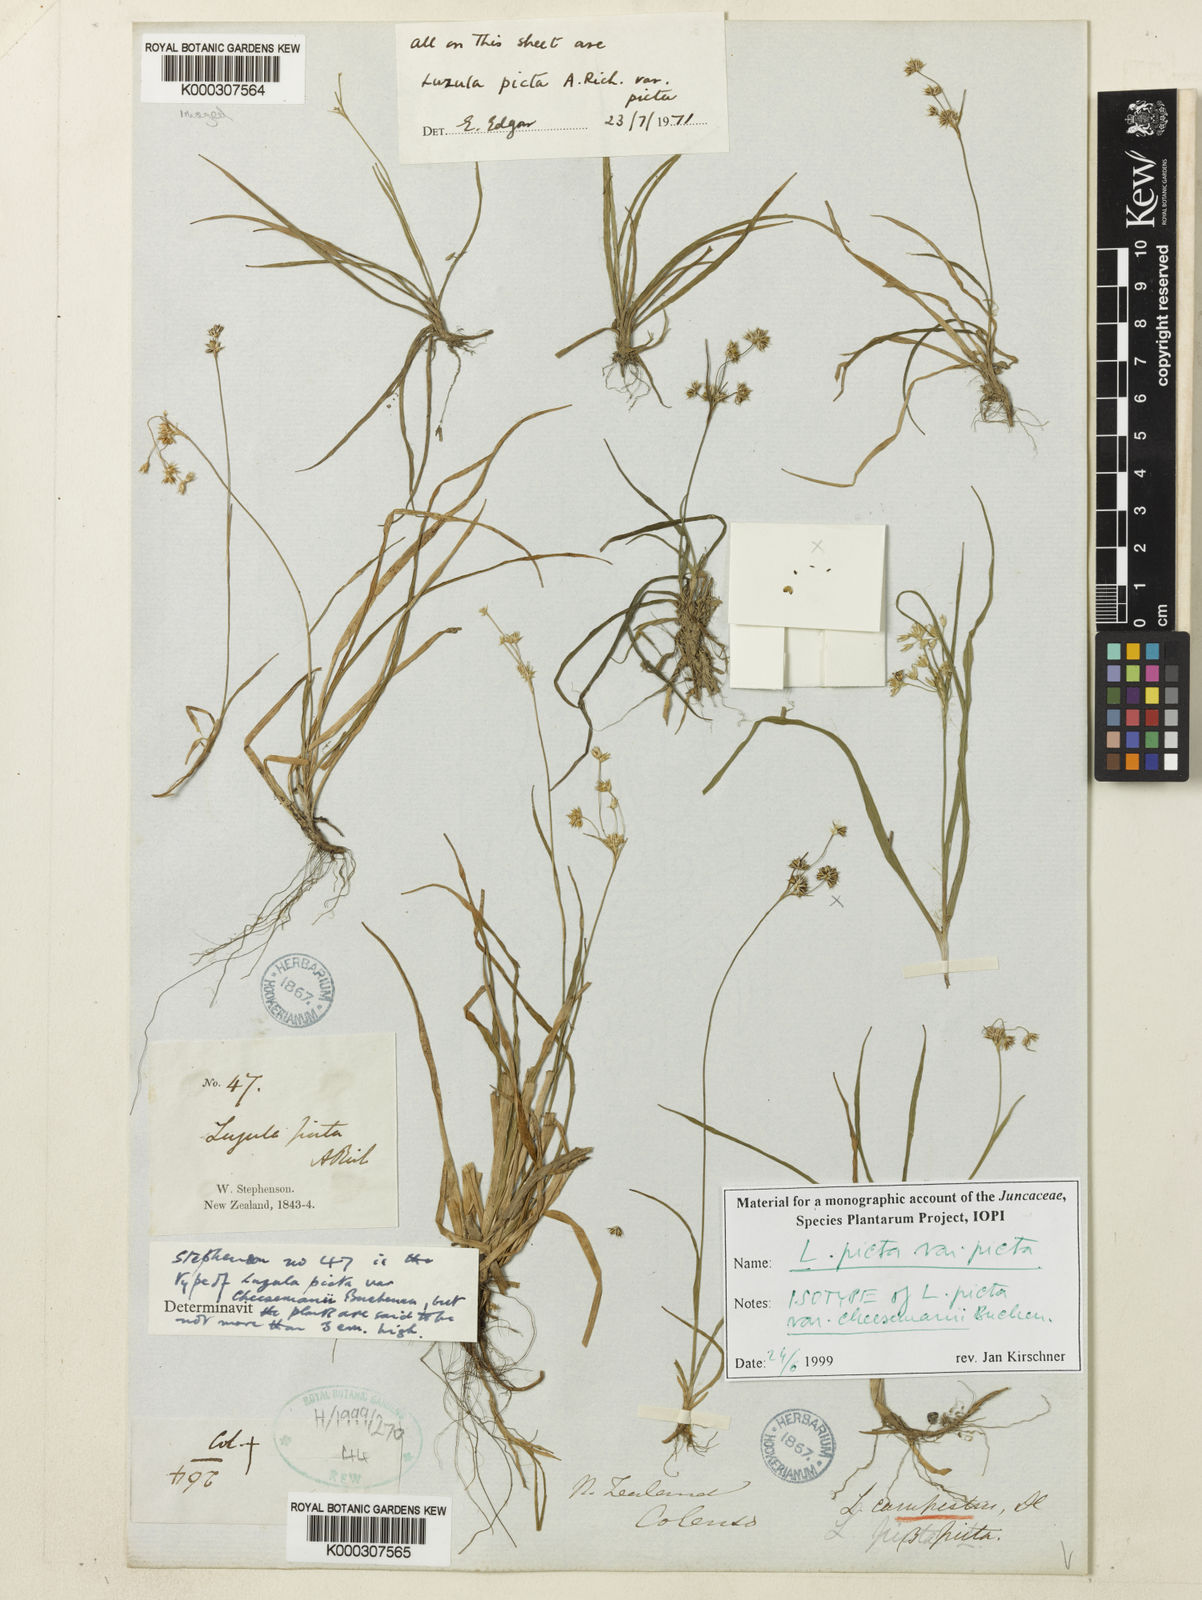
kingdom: Plantae
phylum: Tracheophyta
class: Liliopsida
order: Poales
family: Juncaceae
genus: Luzula
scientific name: Luzula picta
